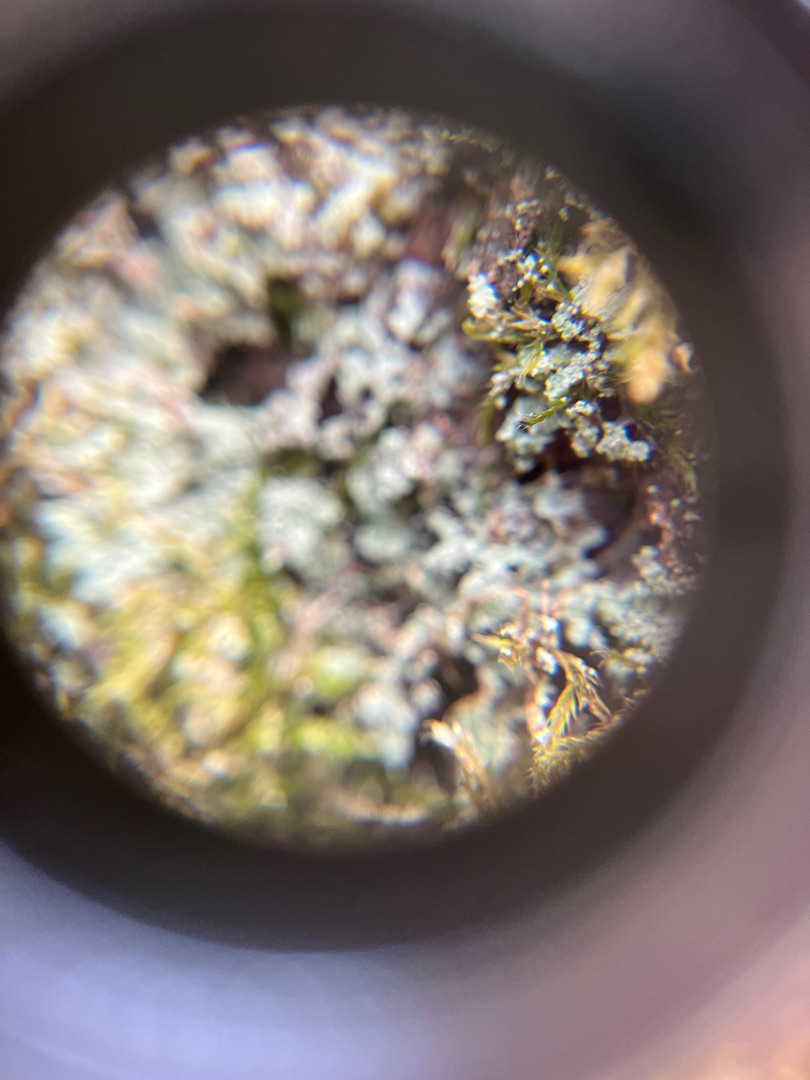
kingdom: Fungi
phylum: Ascomycota
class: Lecanoromycetes
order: Lecanorales
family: Stereocaulaceae
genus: Lepraria
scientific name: Lepraria
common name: Støvlav
